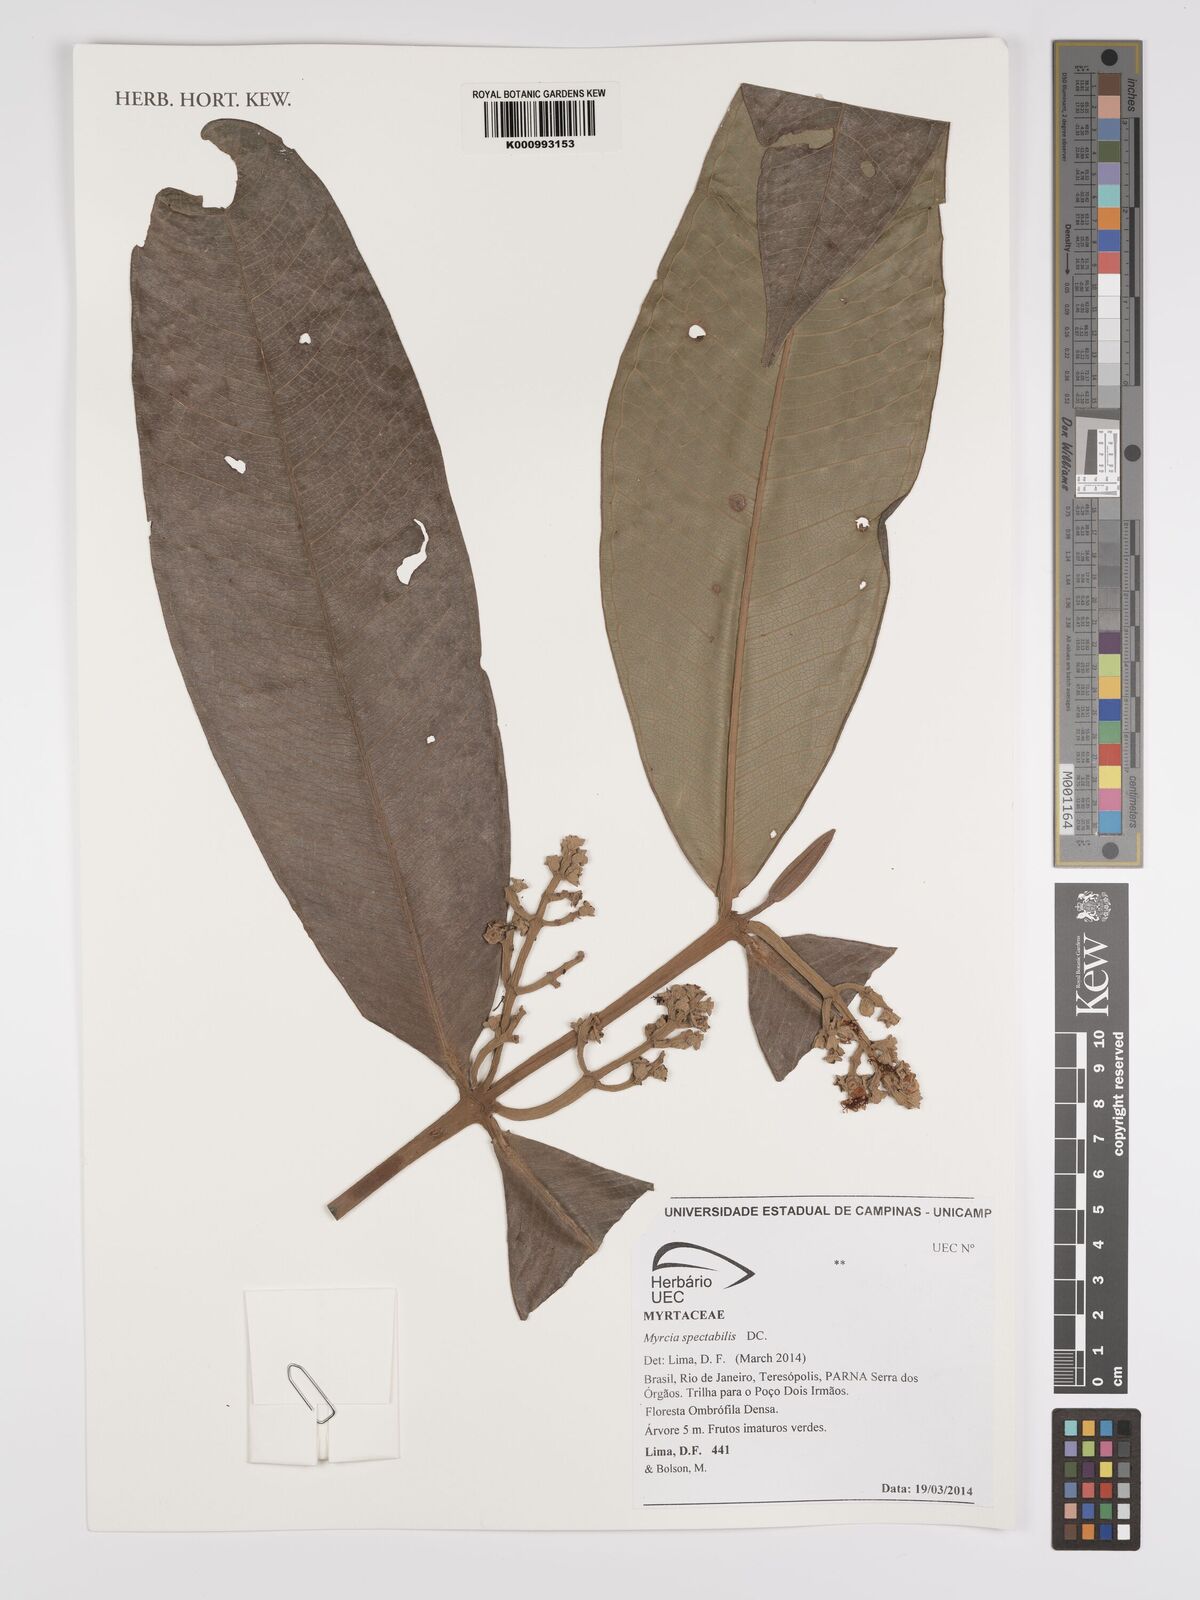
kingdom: Plantae
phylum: Tracheophyta
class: Magnoliopsida
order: Myrtales
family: Myrtaceae
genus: Myrcia
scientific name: Myrcia spectabilis
